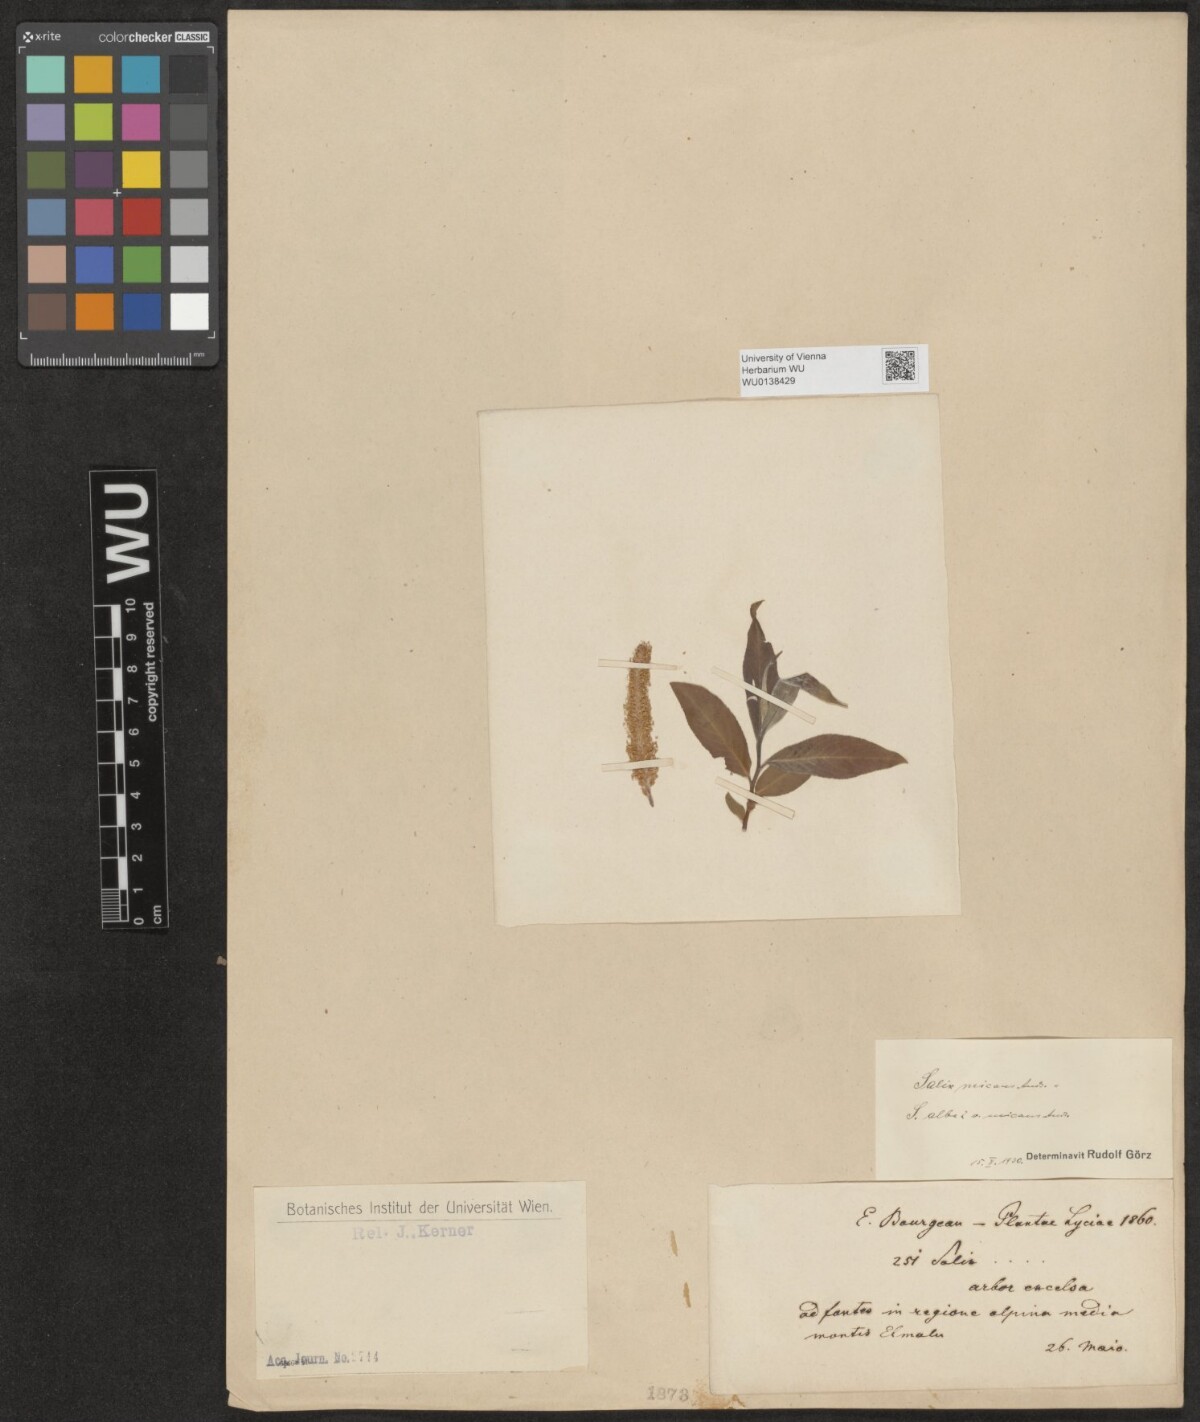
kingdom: Plantae
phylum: Tracheophyta
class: Magnoliopsida
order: Malpighiales
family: Salicaceae
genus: Salix
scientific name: Salix alba
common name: White willow
